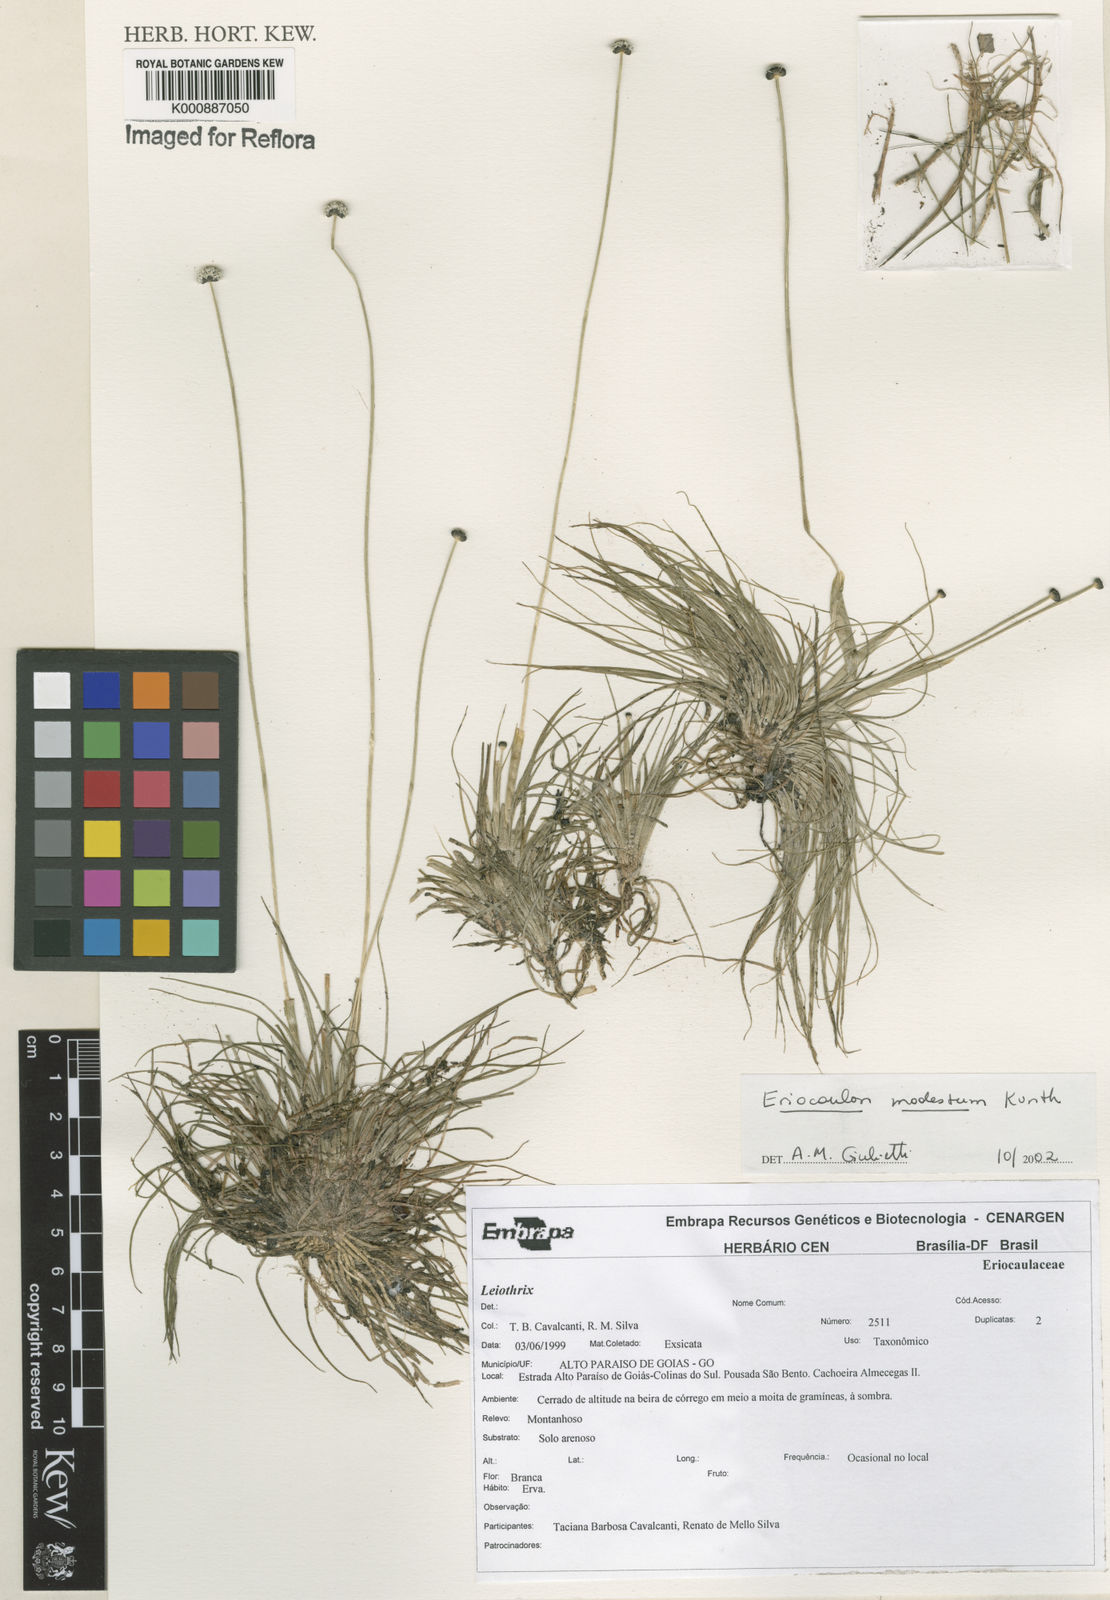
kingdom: Plantae
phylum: Tracheophyta
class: Liliopsida
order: Poales
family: Eriocaulaceae
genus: Eriocaulon
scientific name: Eriocaulon modestum
